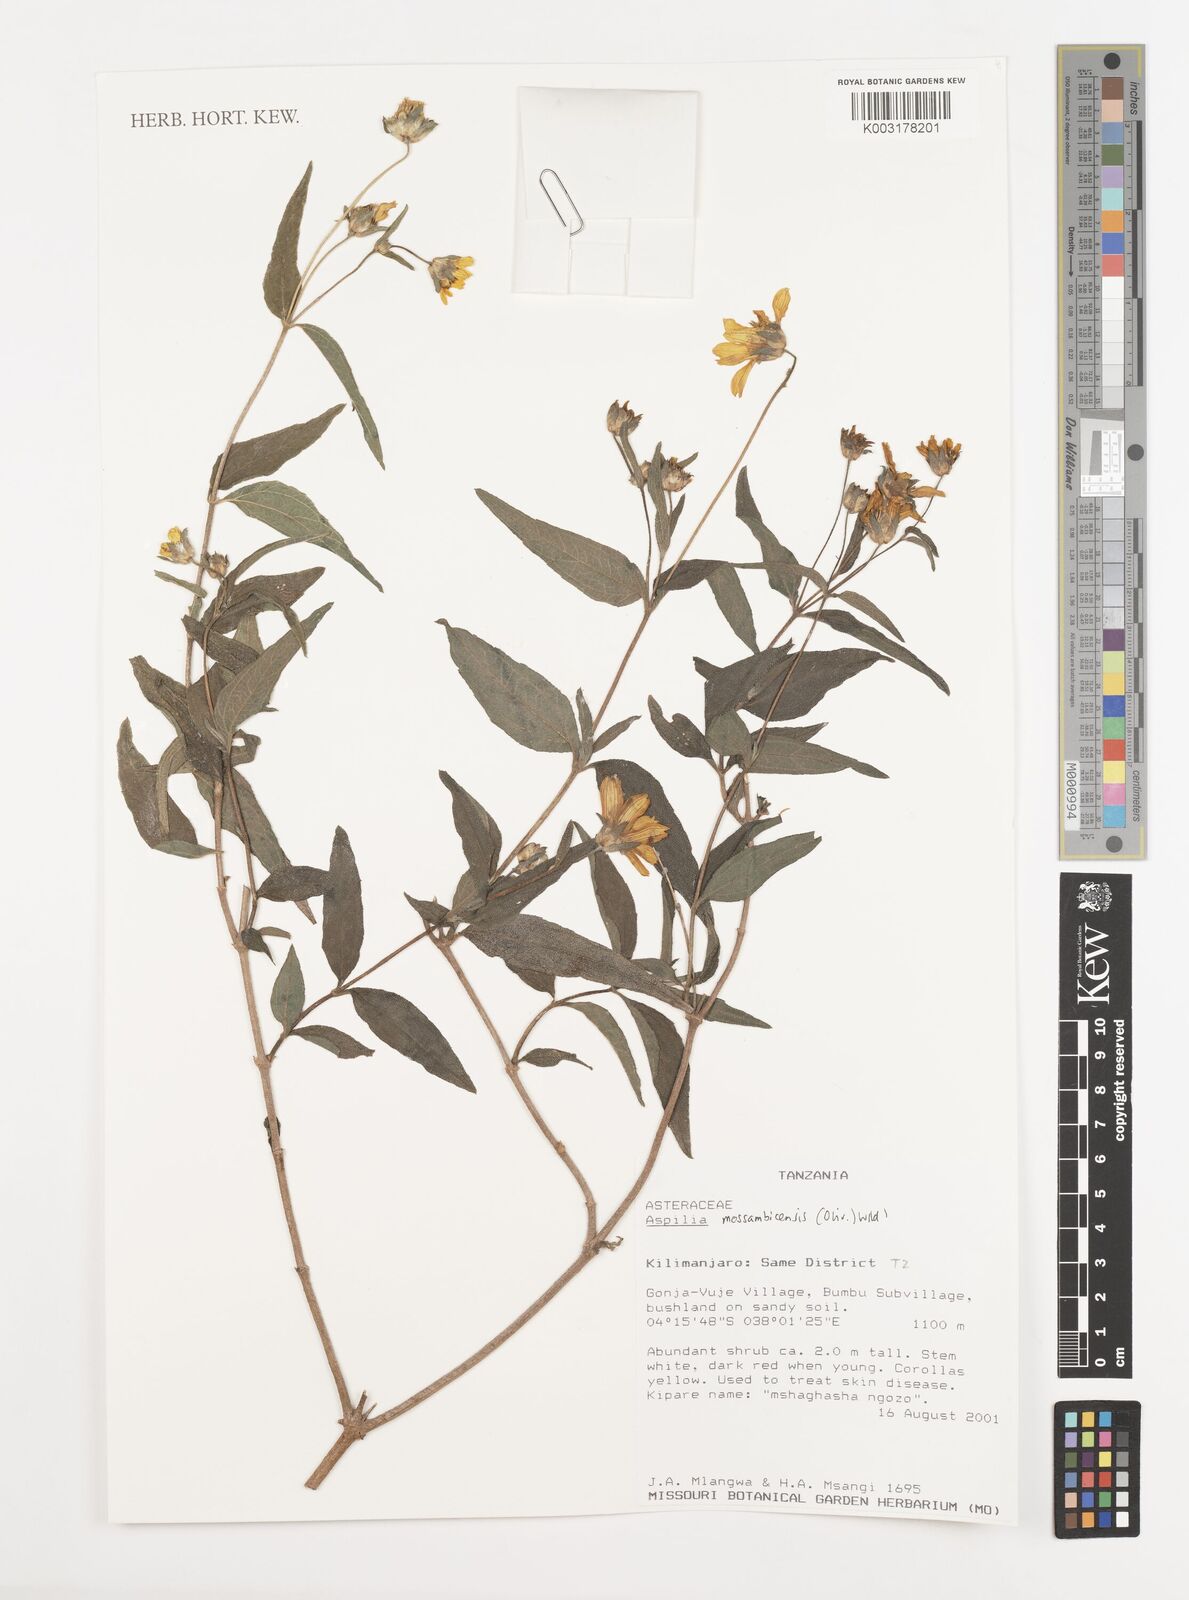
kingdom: Plantae
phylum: Tracheophyta
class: Magnoliopsida
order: Asterales
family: Asteraceae
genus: Aspilia
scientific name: Aspilia mossambicensis
